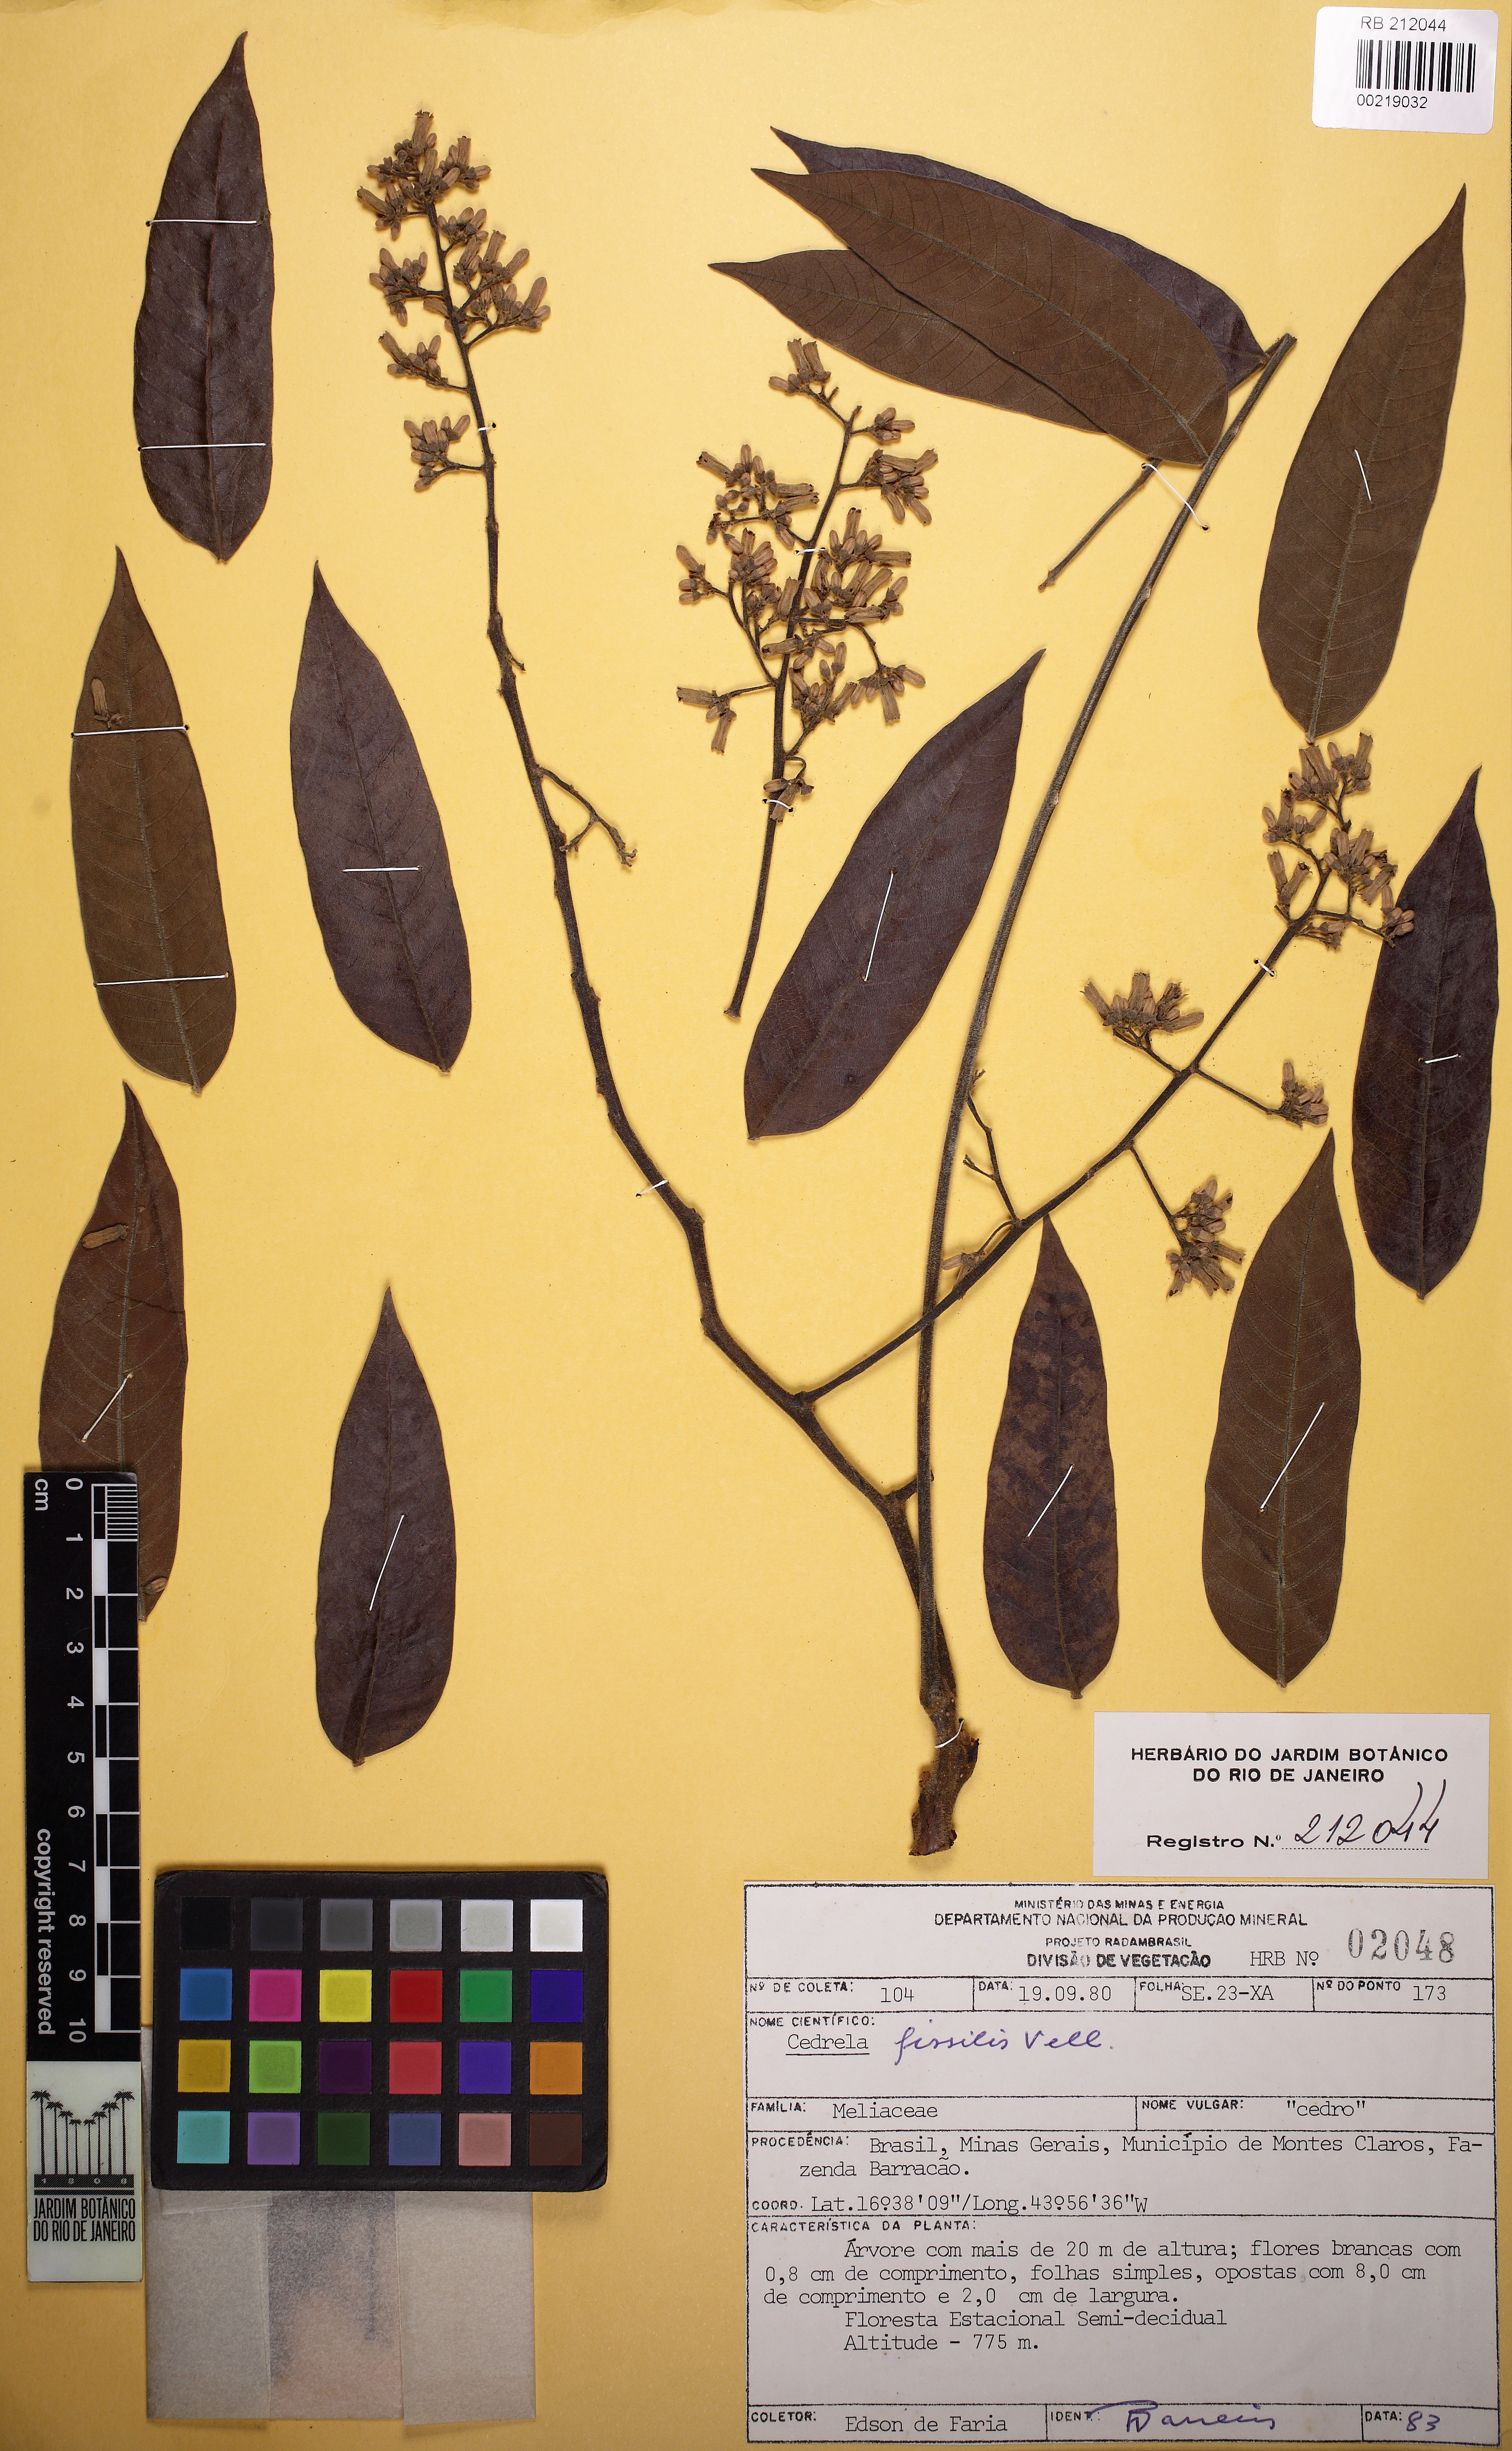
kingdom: Plantae
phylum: Tracheophyta
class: Magnoliopsida
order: Sapindales
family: Meliaceae
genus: Cedrela
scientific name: Cedrela fissilis
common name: Argentine cedar
